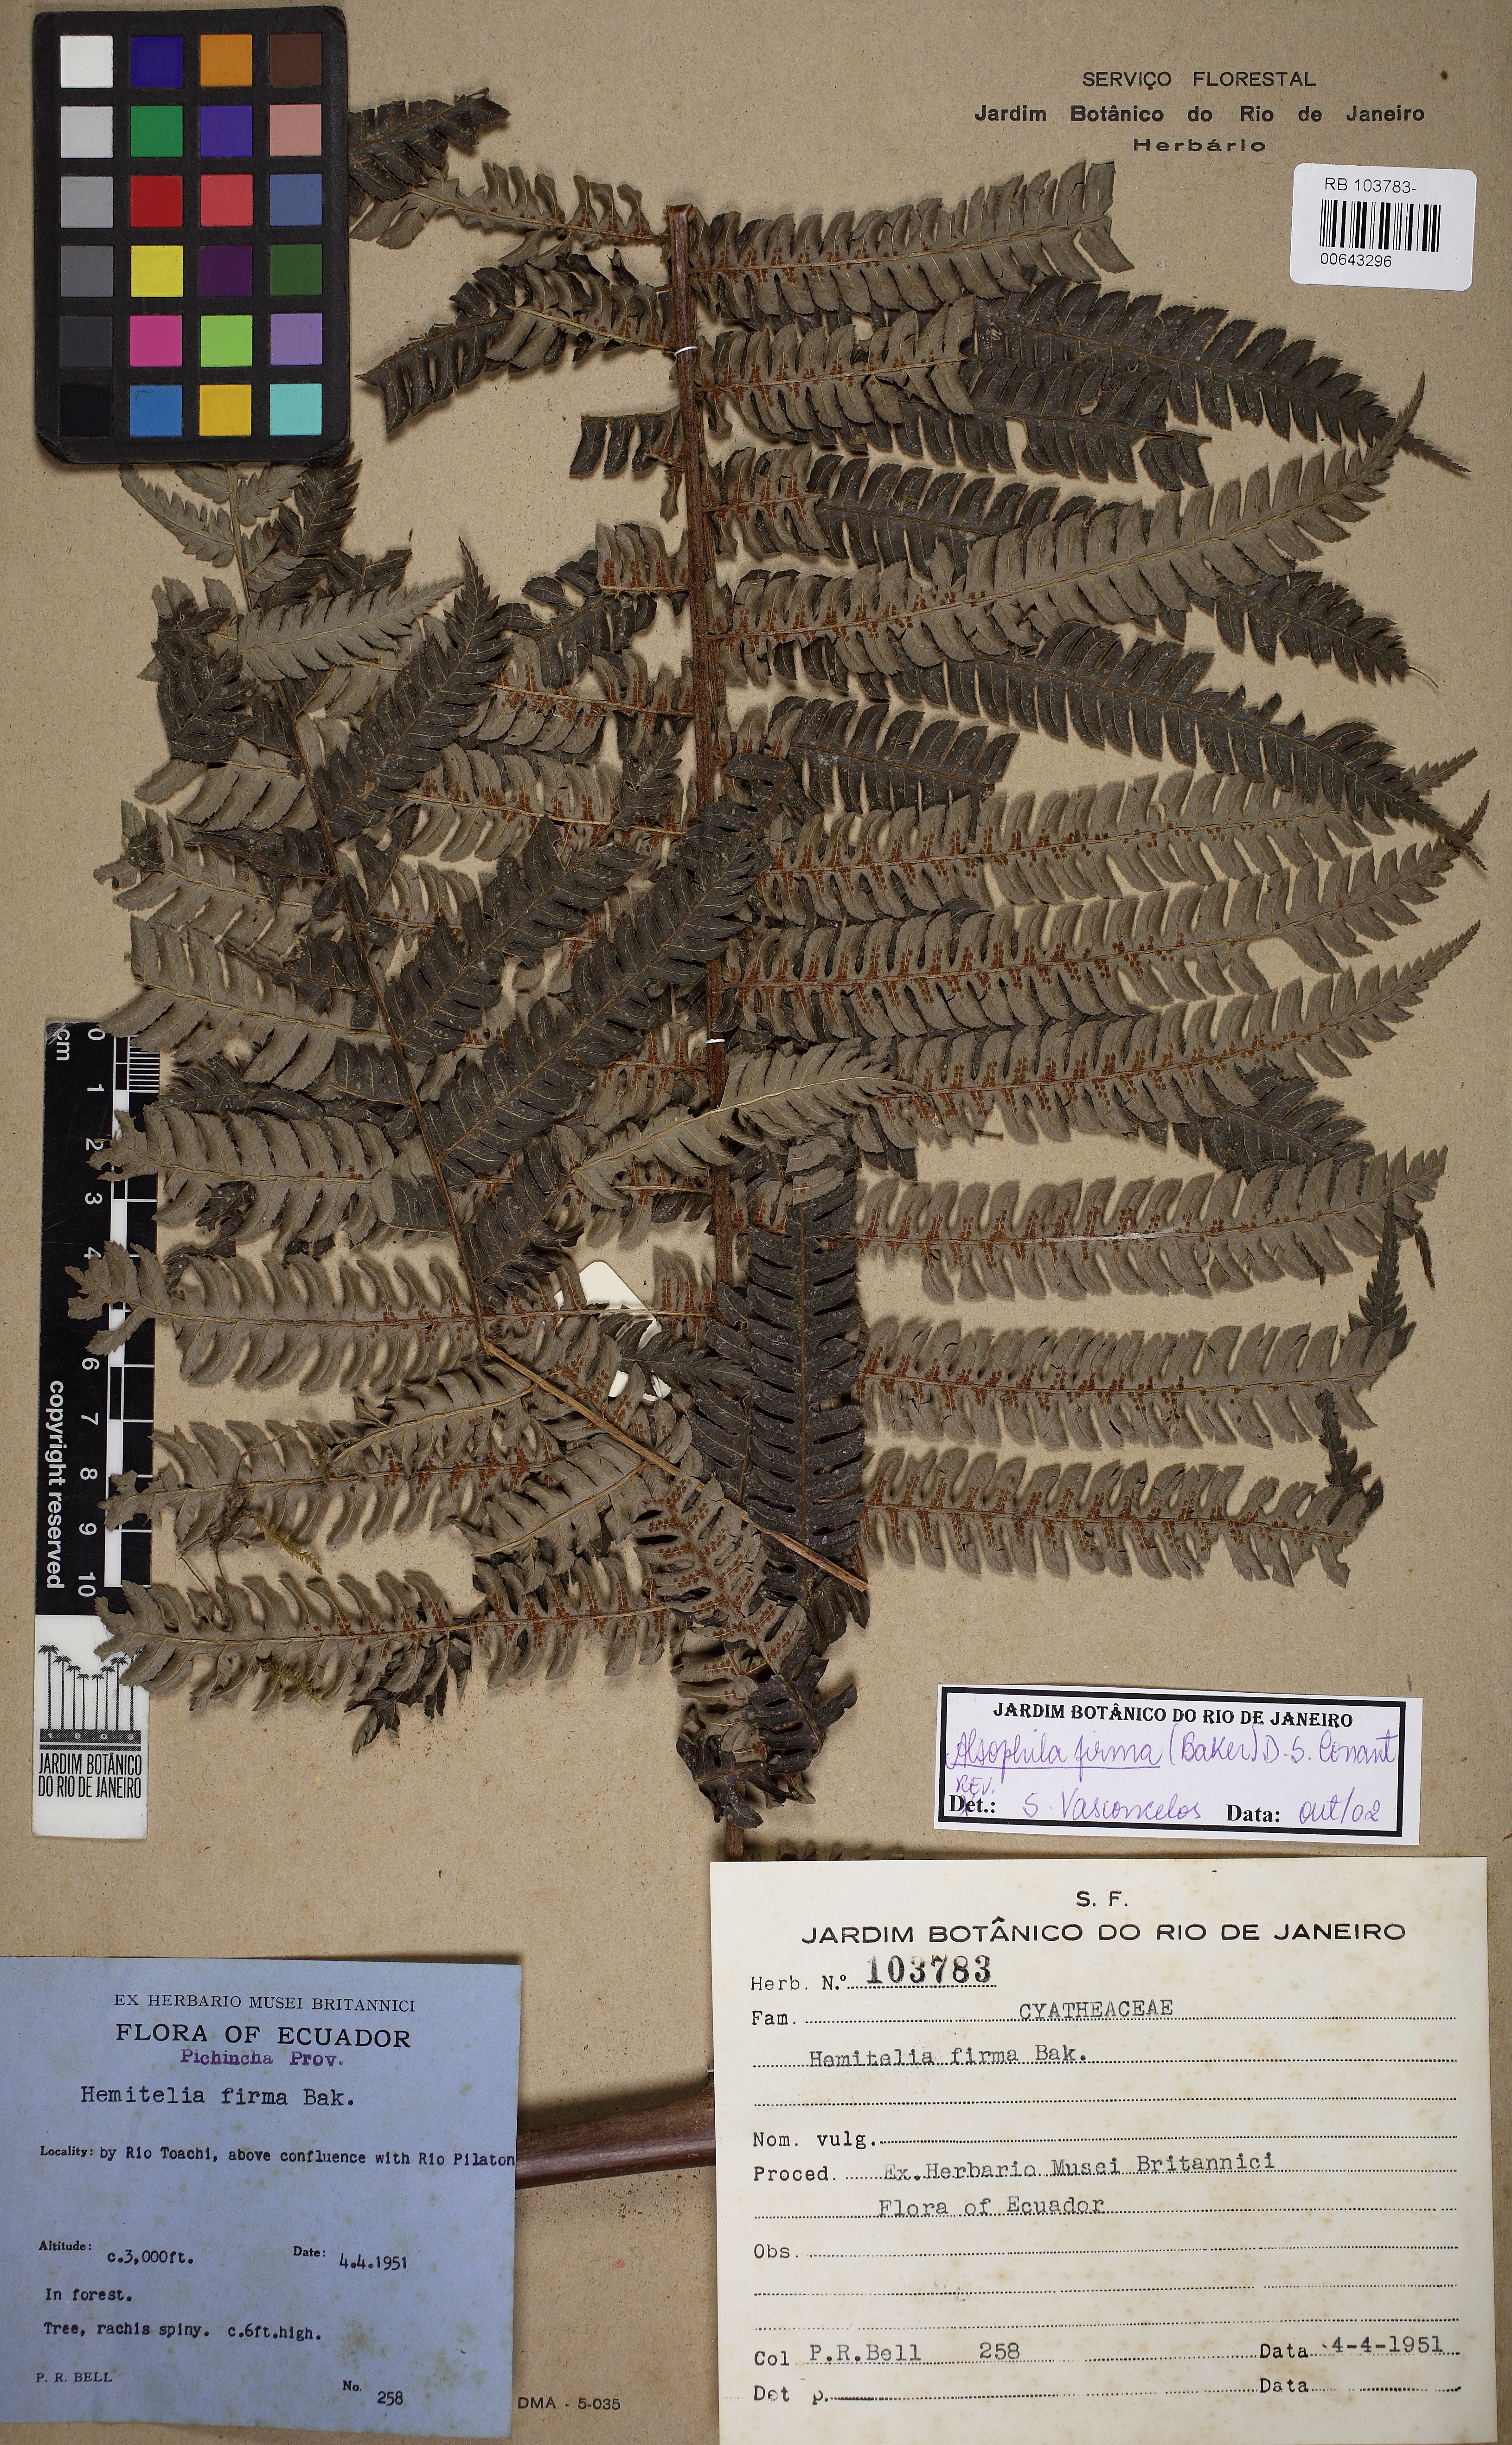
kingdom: Plantae
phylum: Tracheophyta
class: Polypodiopsida
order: Cyatheales
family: Cyatheaceae
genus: Alsophila
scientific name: Alsophila firma
